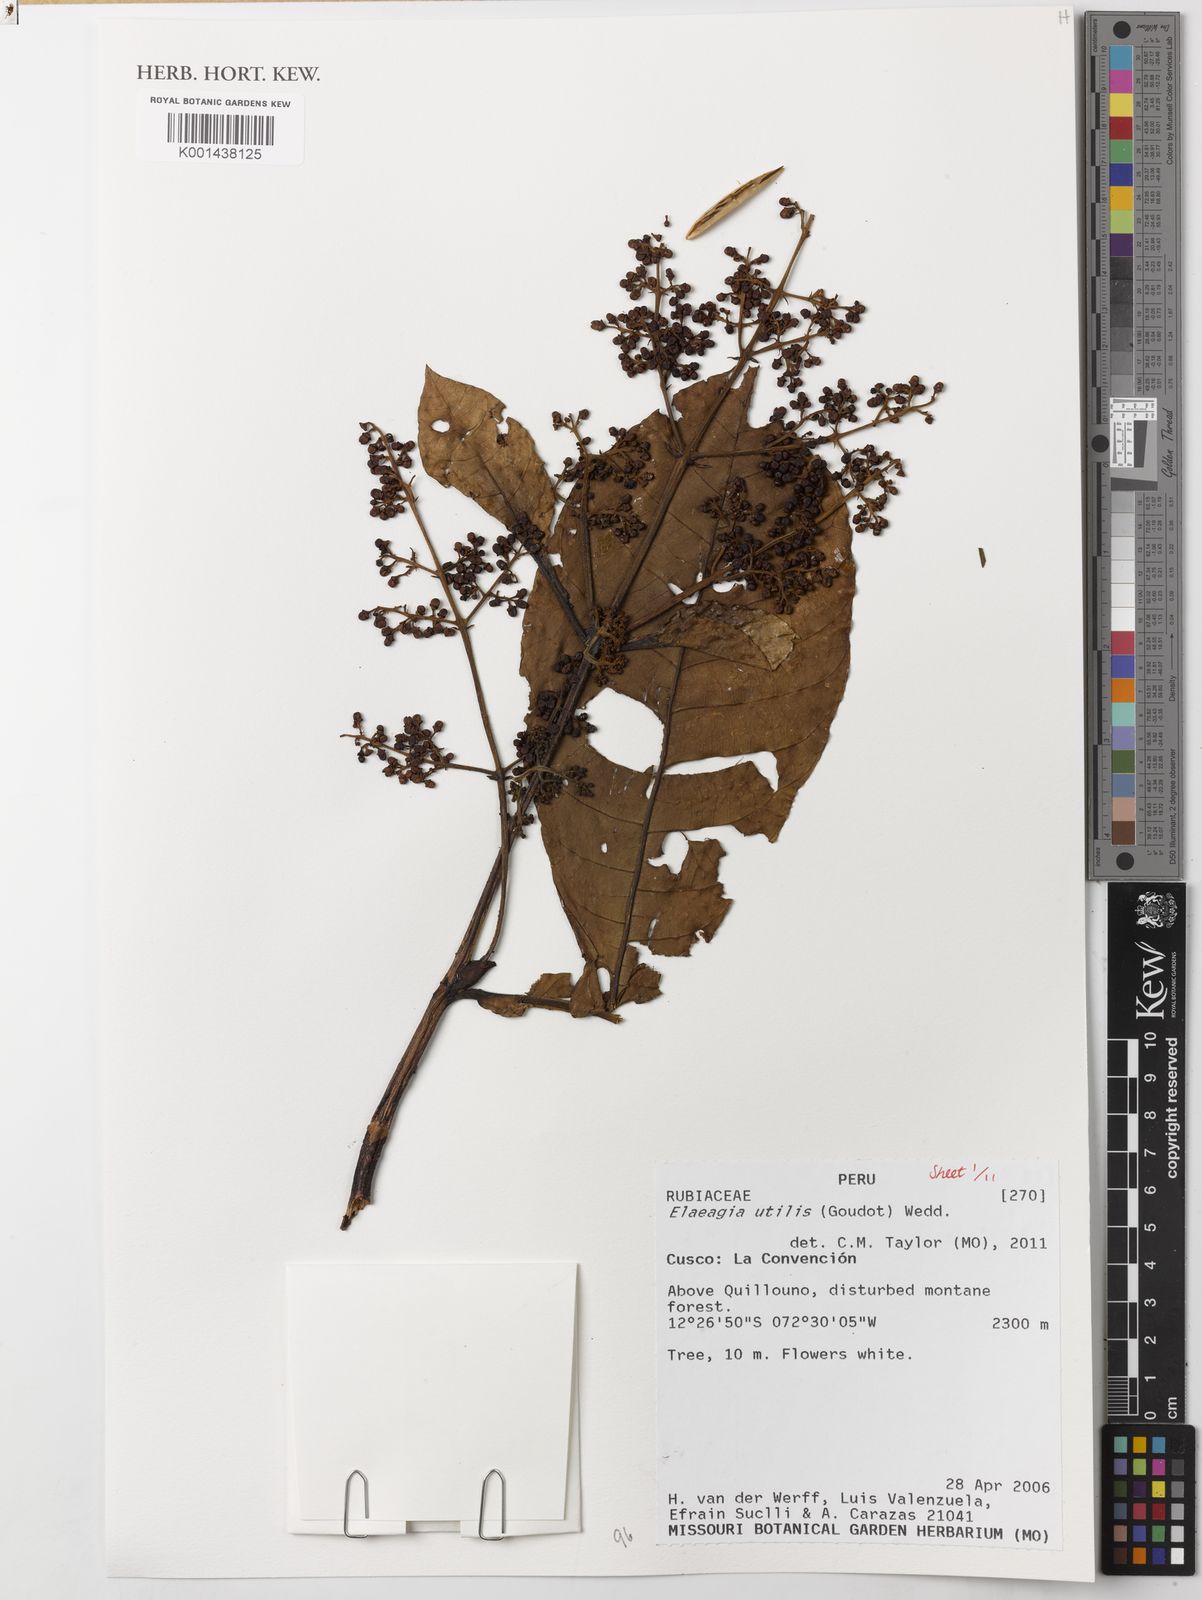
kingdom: Plantae
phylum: Tracheophyta
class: Magnoliopsida
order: Gentianales
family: Rubiaceae
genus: Elaeagia
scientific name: Elaeagia utilis
